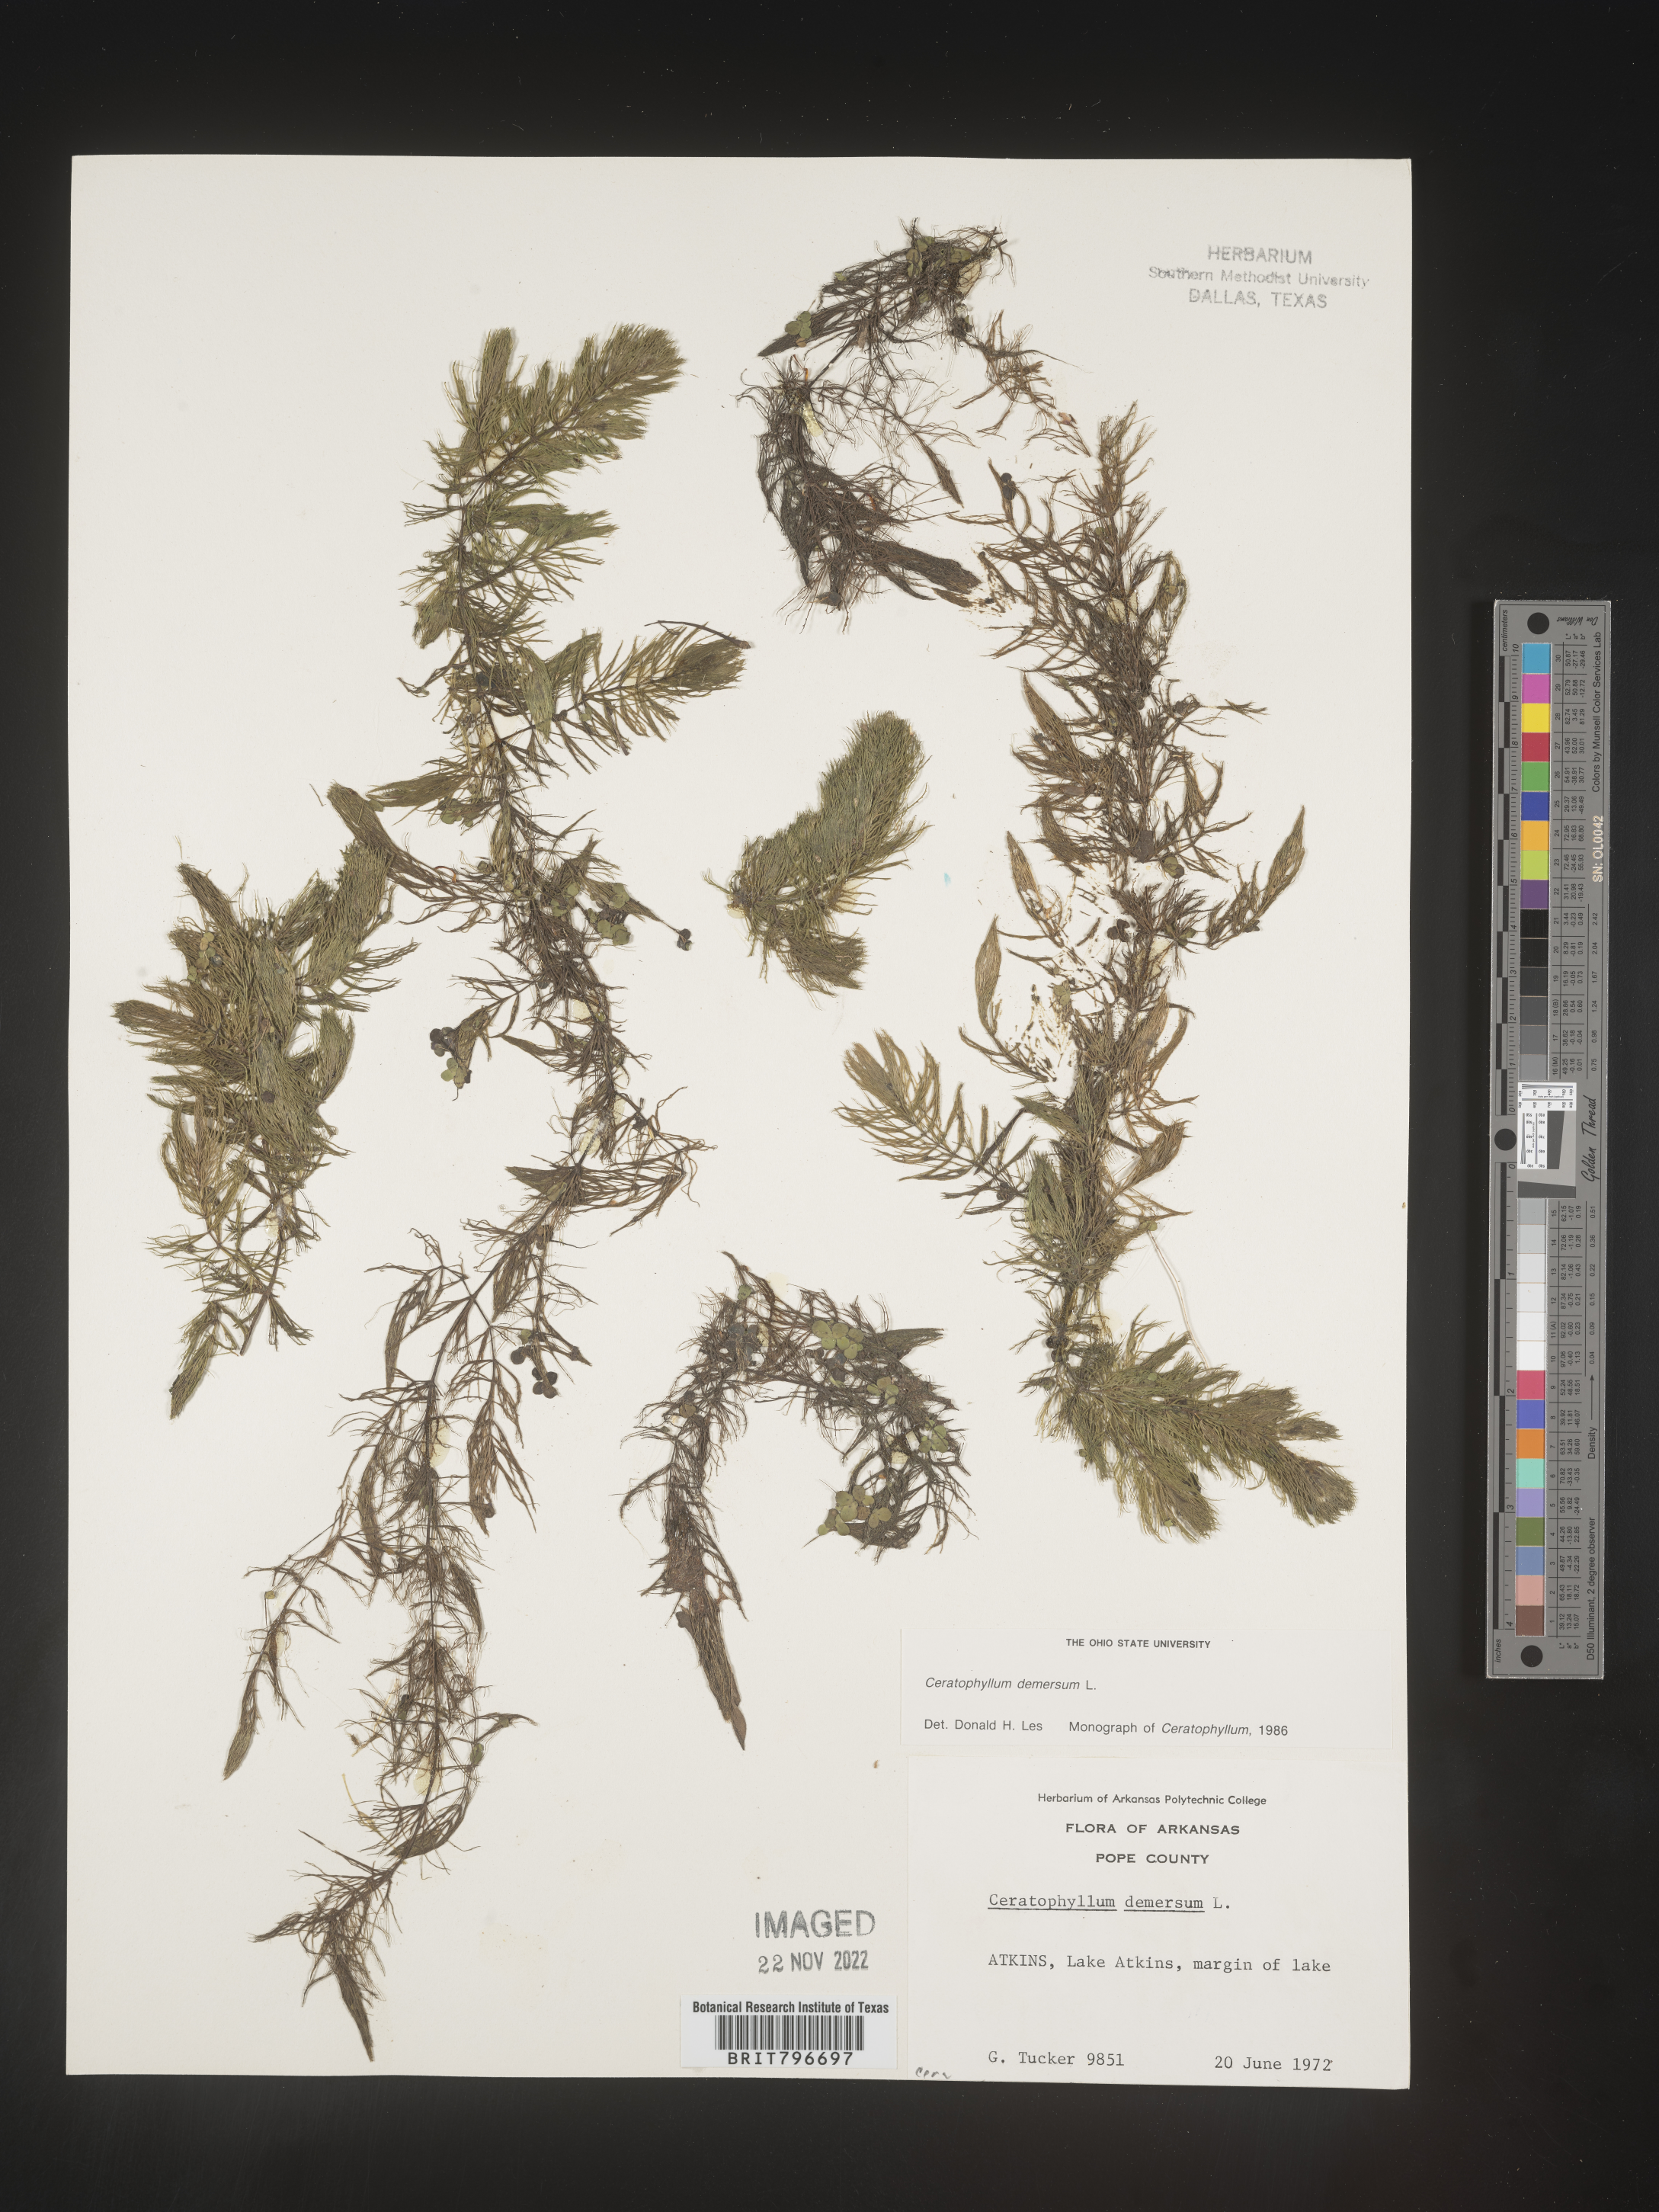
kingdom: Plantae
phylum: Tracheophyta
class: Magnoliopsida
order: Ceratophyllales
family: Ceratophyllaceae
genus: Ceratophyllum
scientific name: Ceratophyllum demersum
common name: Rigid hornwort
